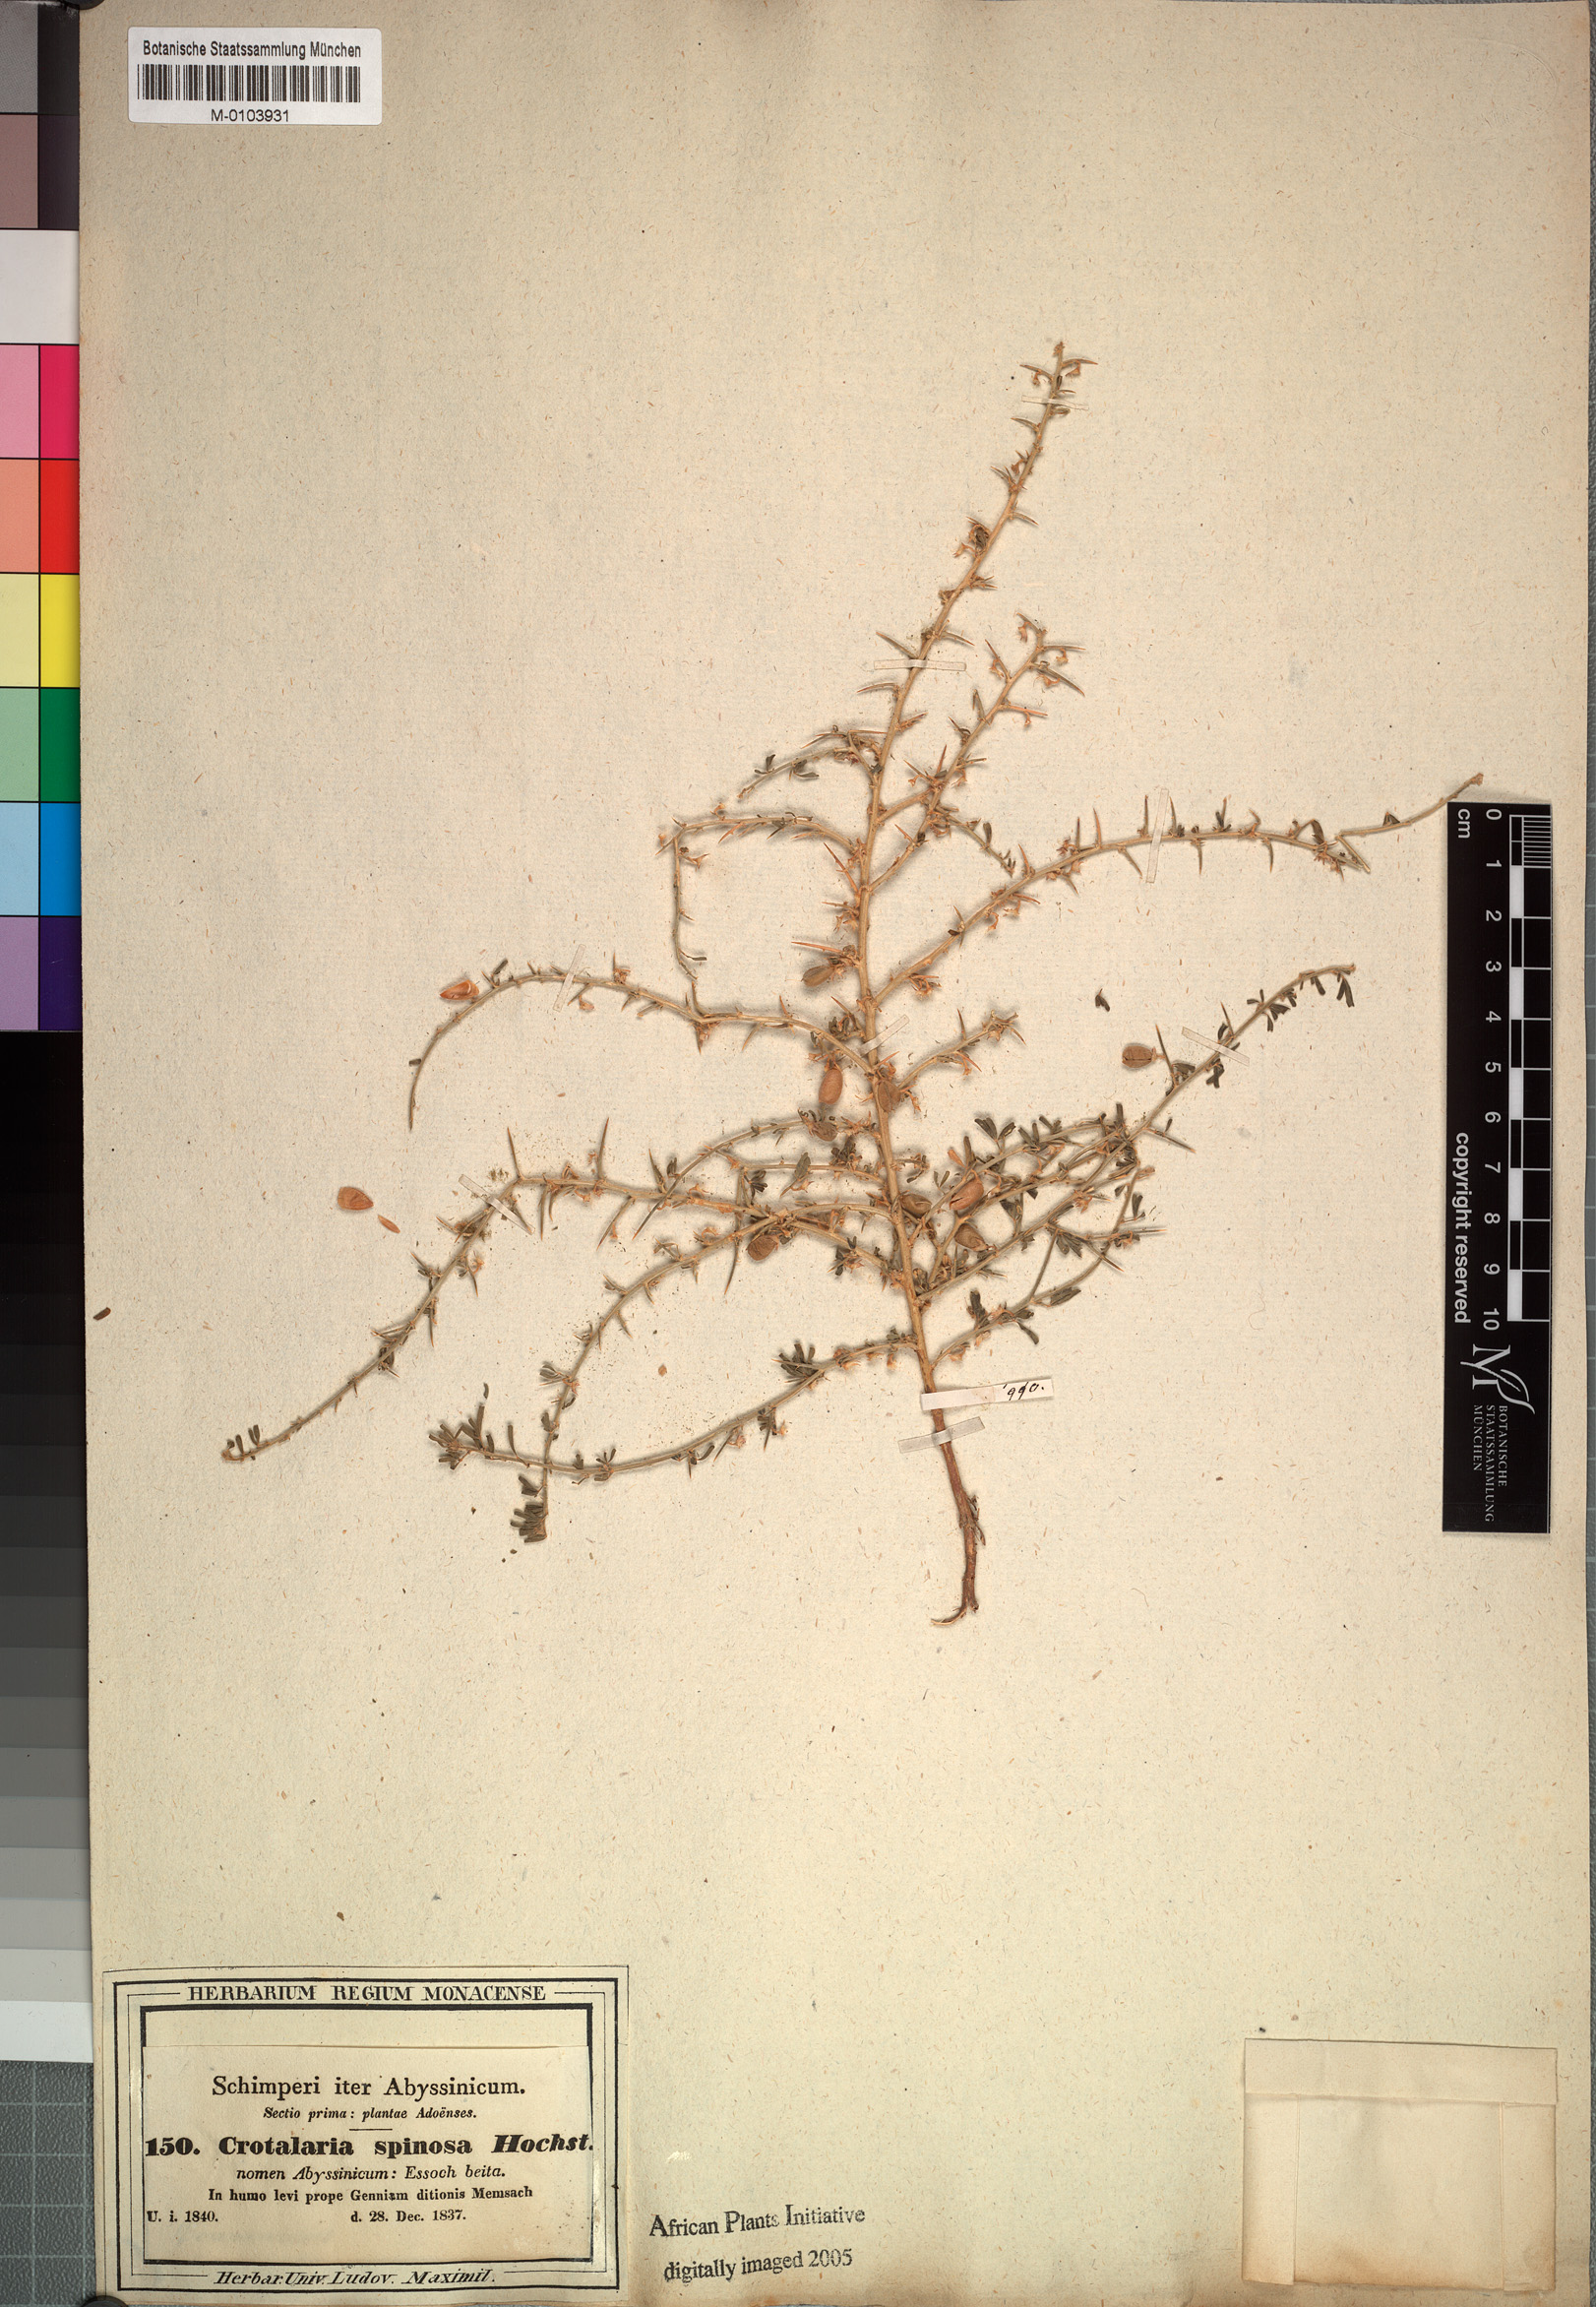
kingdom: Plantae
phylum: Tracheophyta
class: Magnoliopsida
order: Fabales
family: Fabaceae
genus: Crotalaria
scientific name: Crotalaria spinosa
